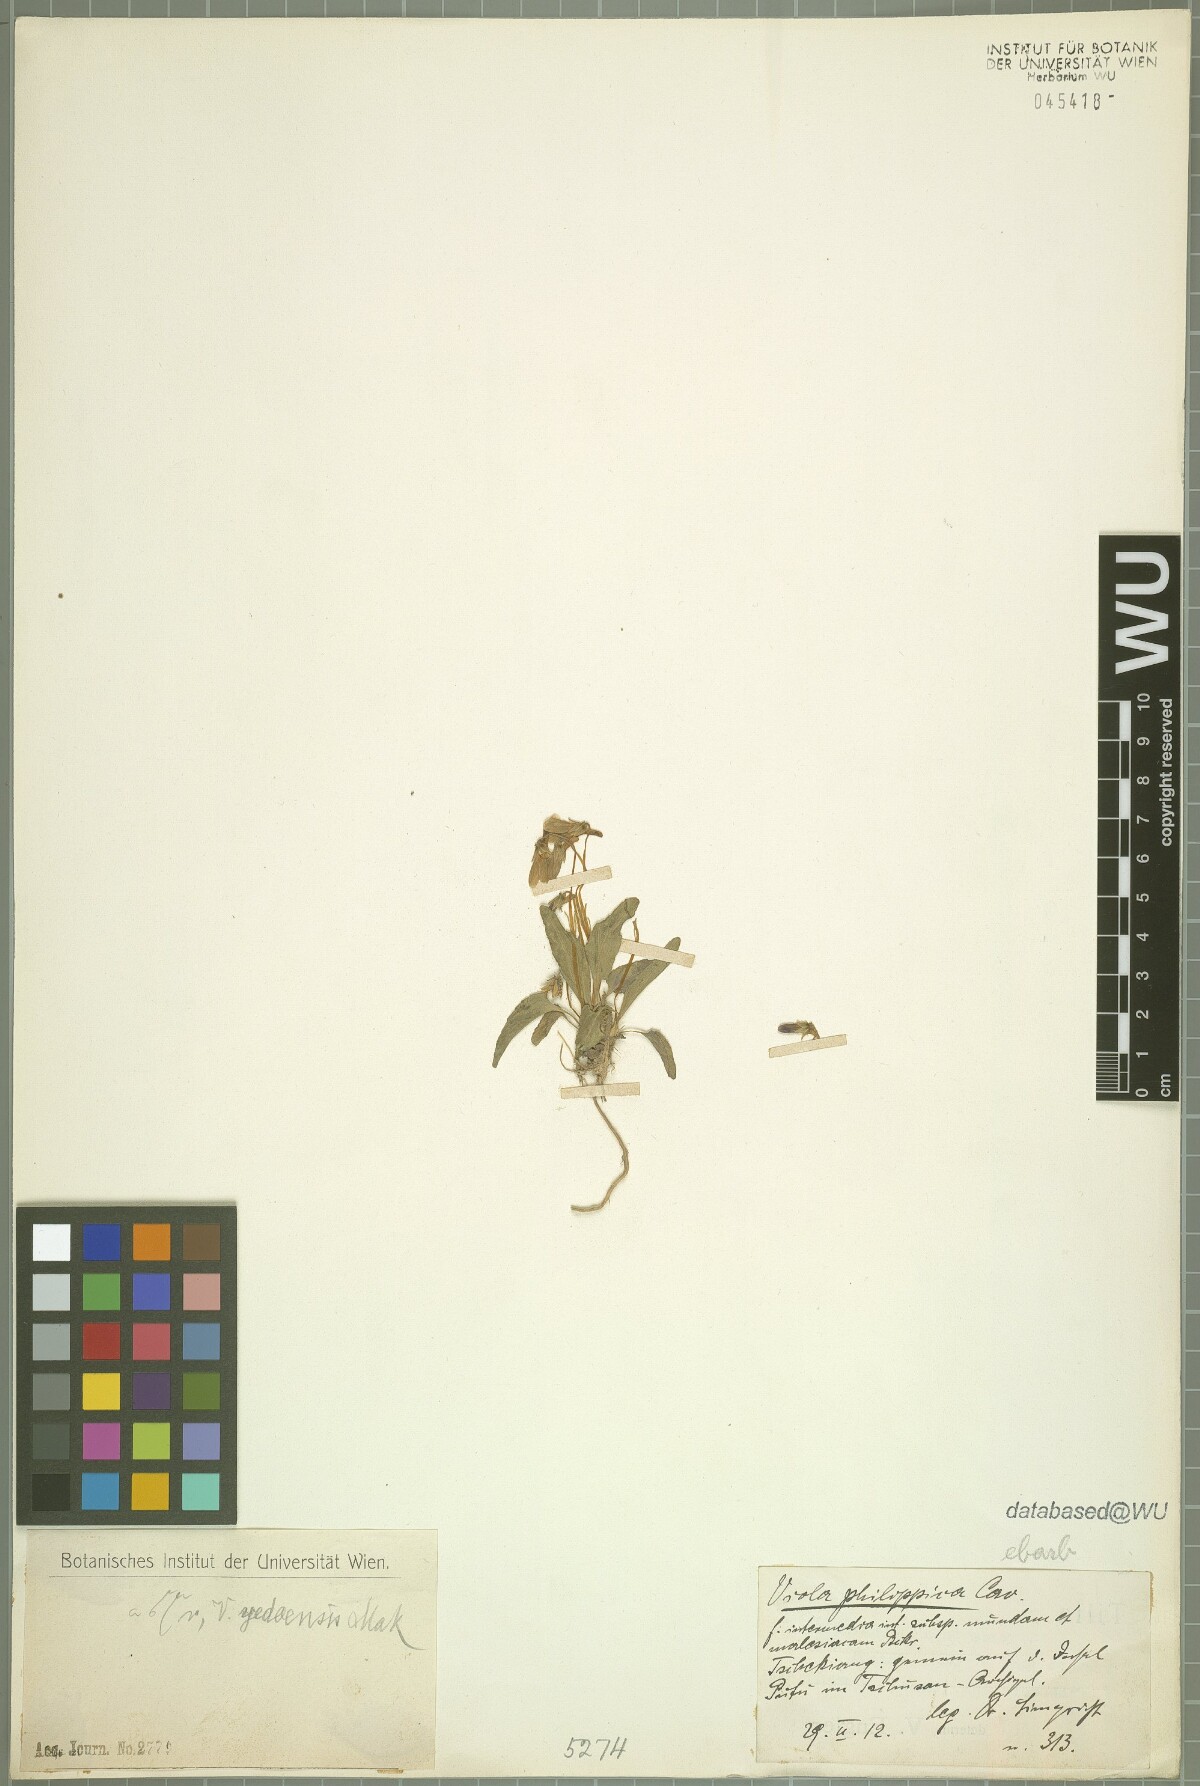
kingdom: Plantae
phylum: Tracheophyta
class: Magnoliopsida
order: Malpighiales
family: Violaceae
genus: Viola
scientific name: Viola philippica
